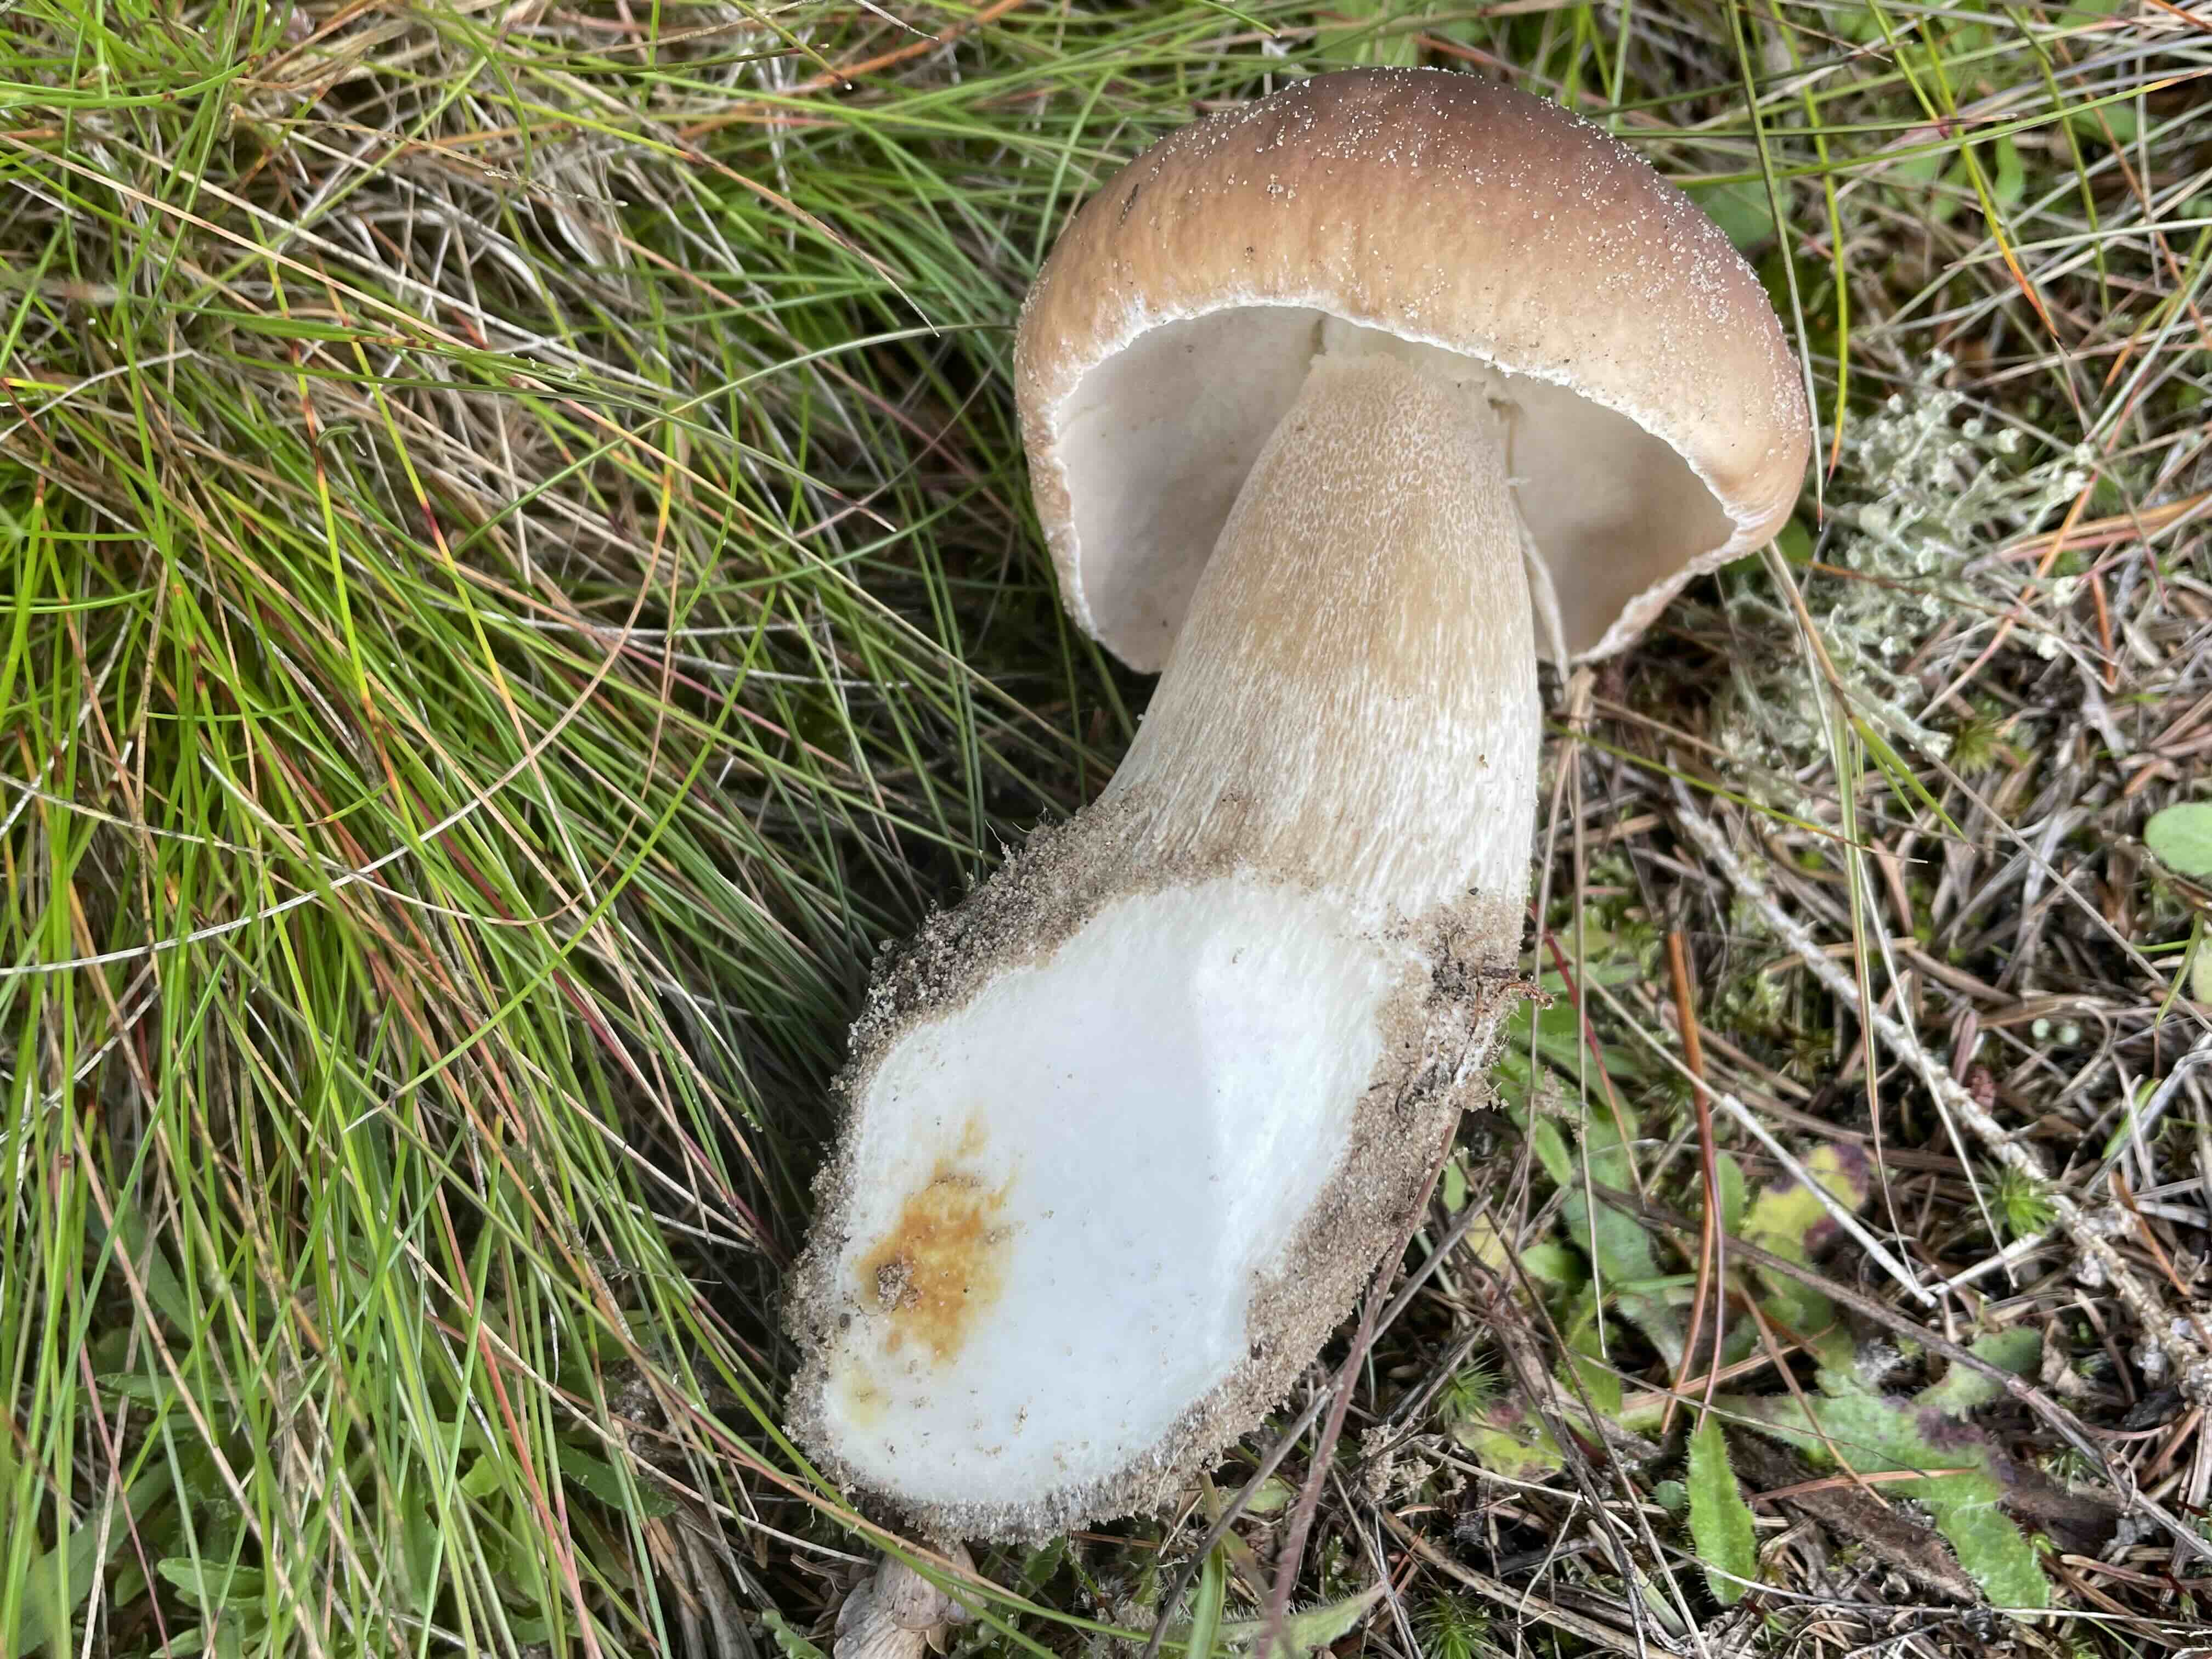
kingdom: Fungi
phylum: Ascomycota
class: Sordariomycetes
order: Hypocreales
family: Hypocreaceae
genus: Hypomyces
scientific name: Hypomyces chrysospermus
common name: gulskimmel-snylteskorpe
